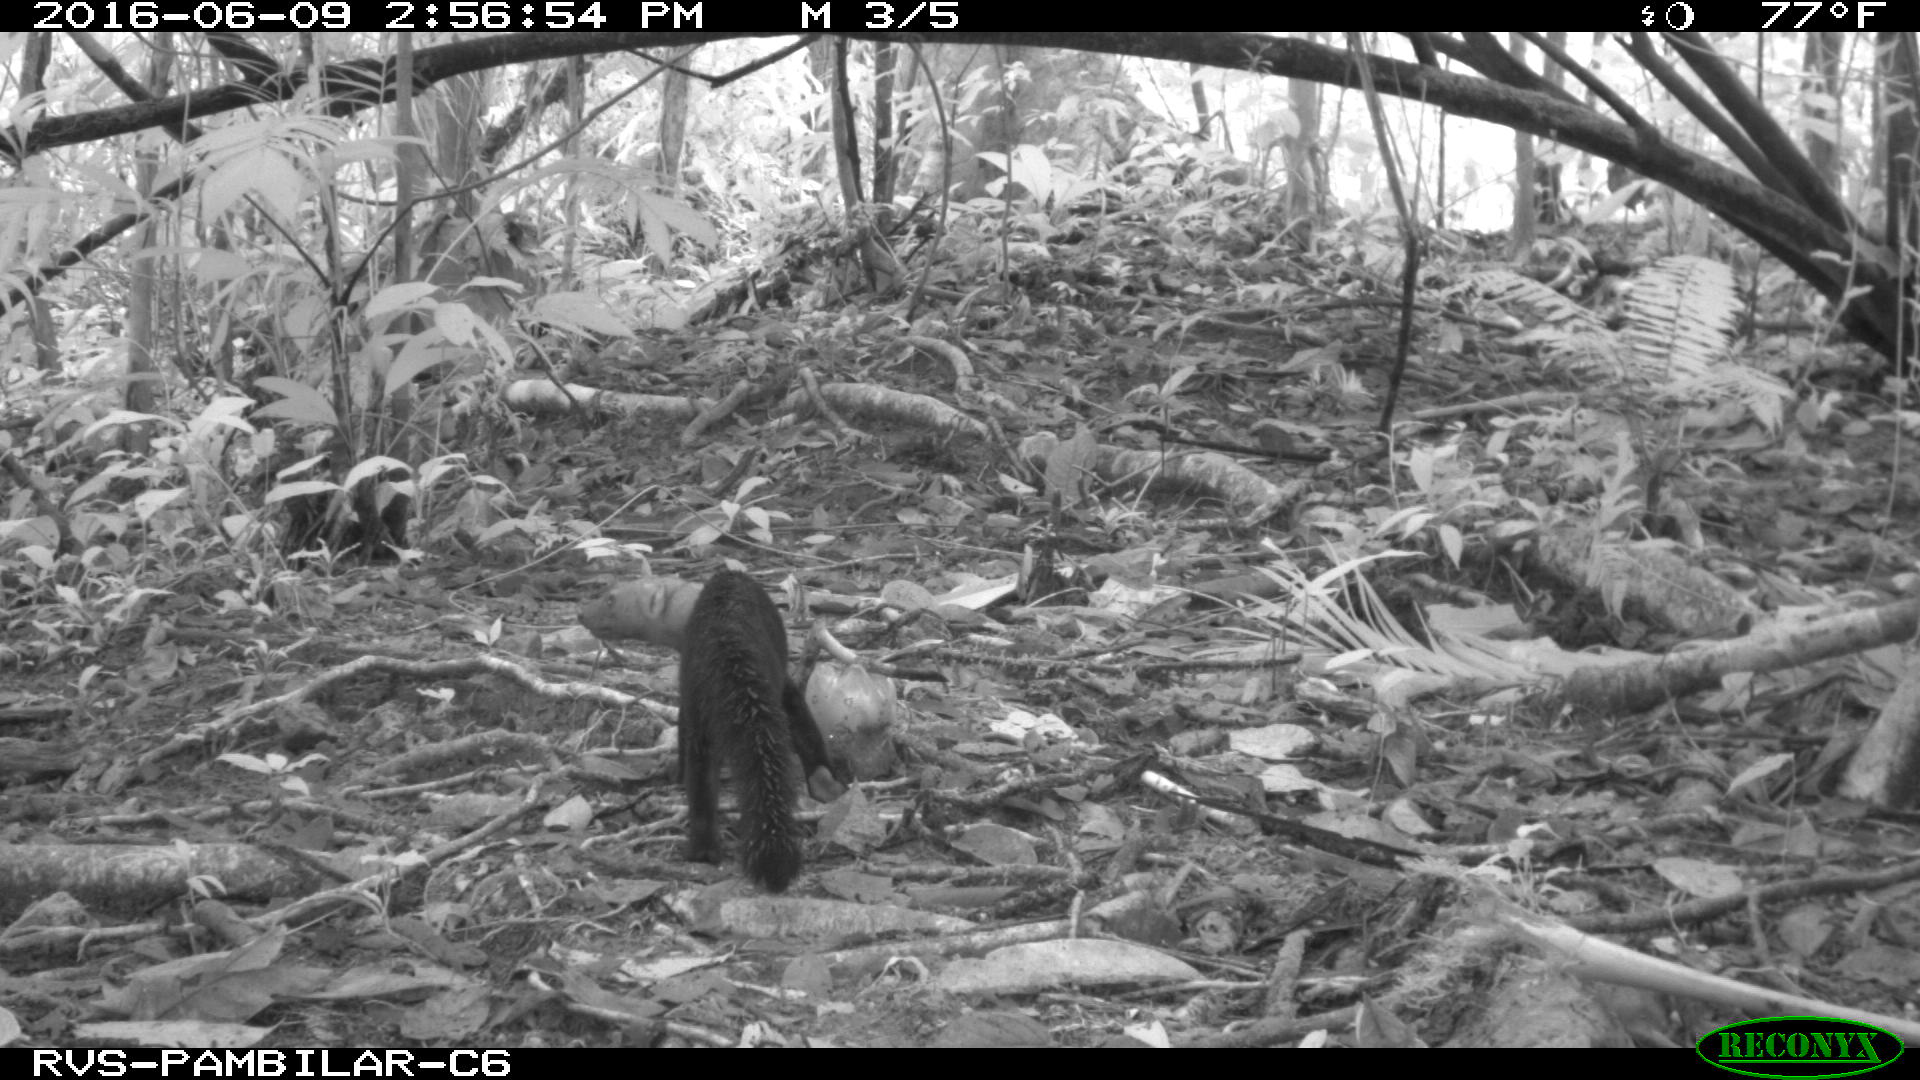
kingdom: Animalia
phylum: Chordata
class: Mammalia
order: Carnivora
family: Mustelidae
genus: Eira
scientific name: Eira barbara
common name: Tayra
